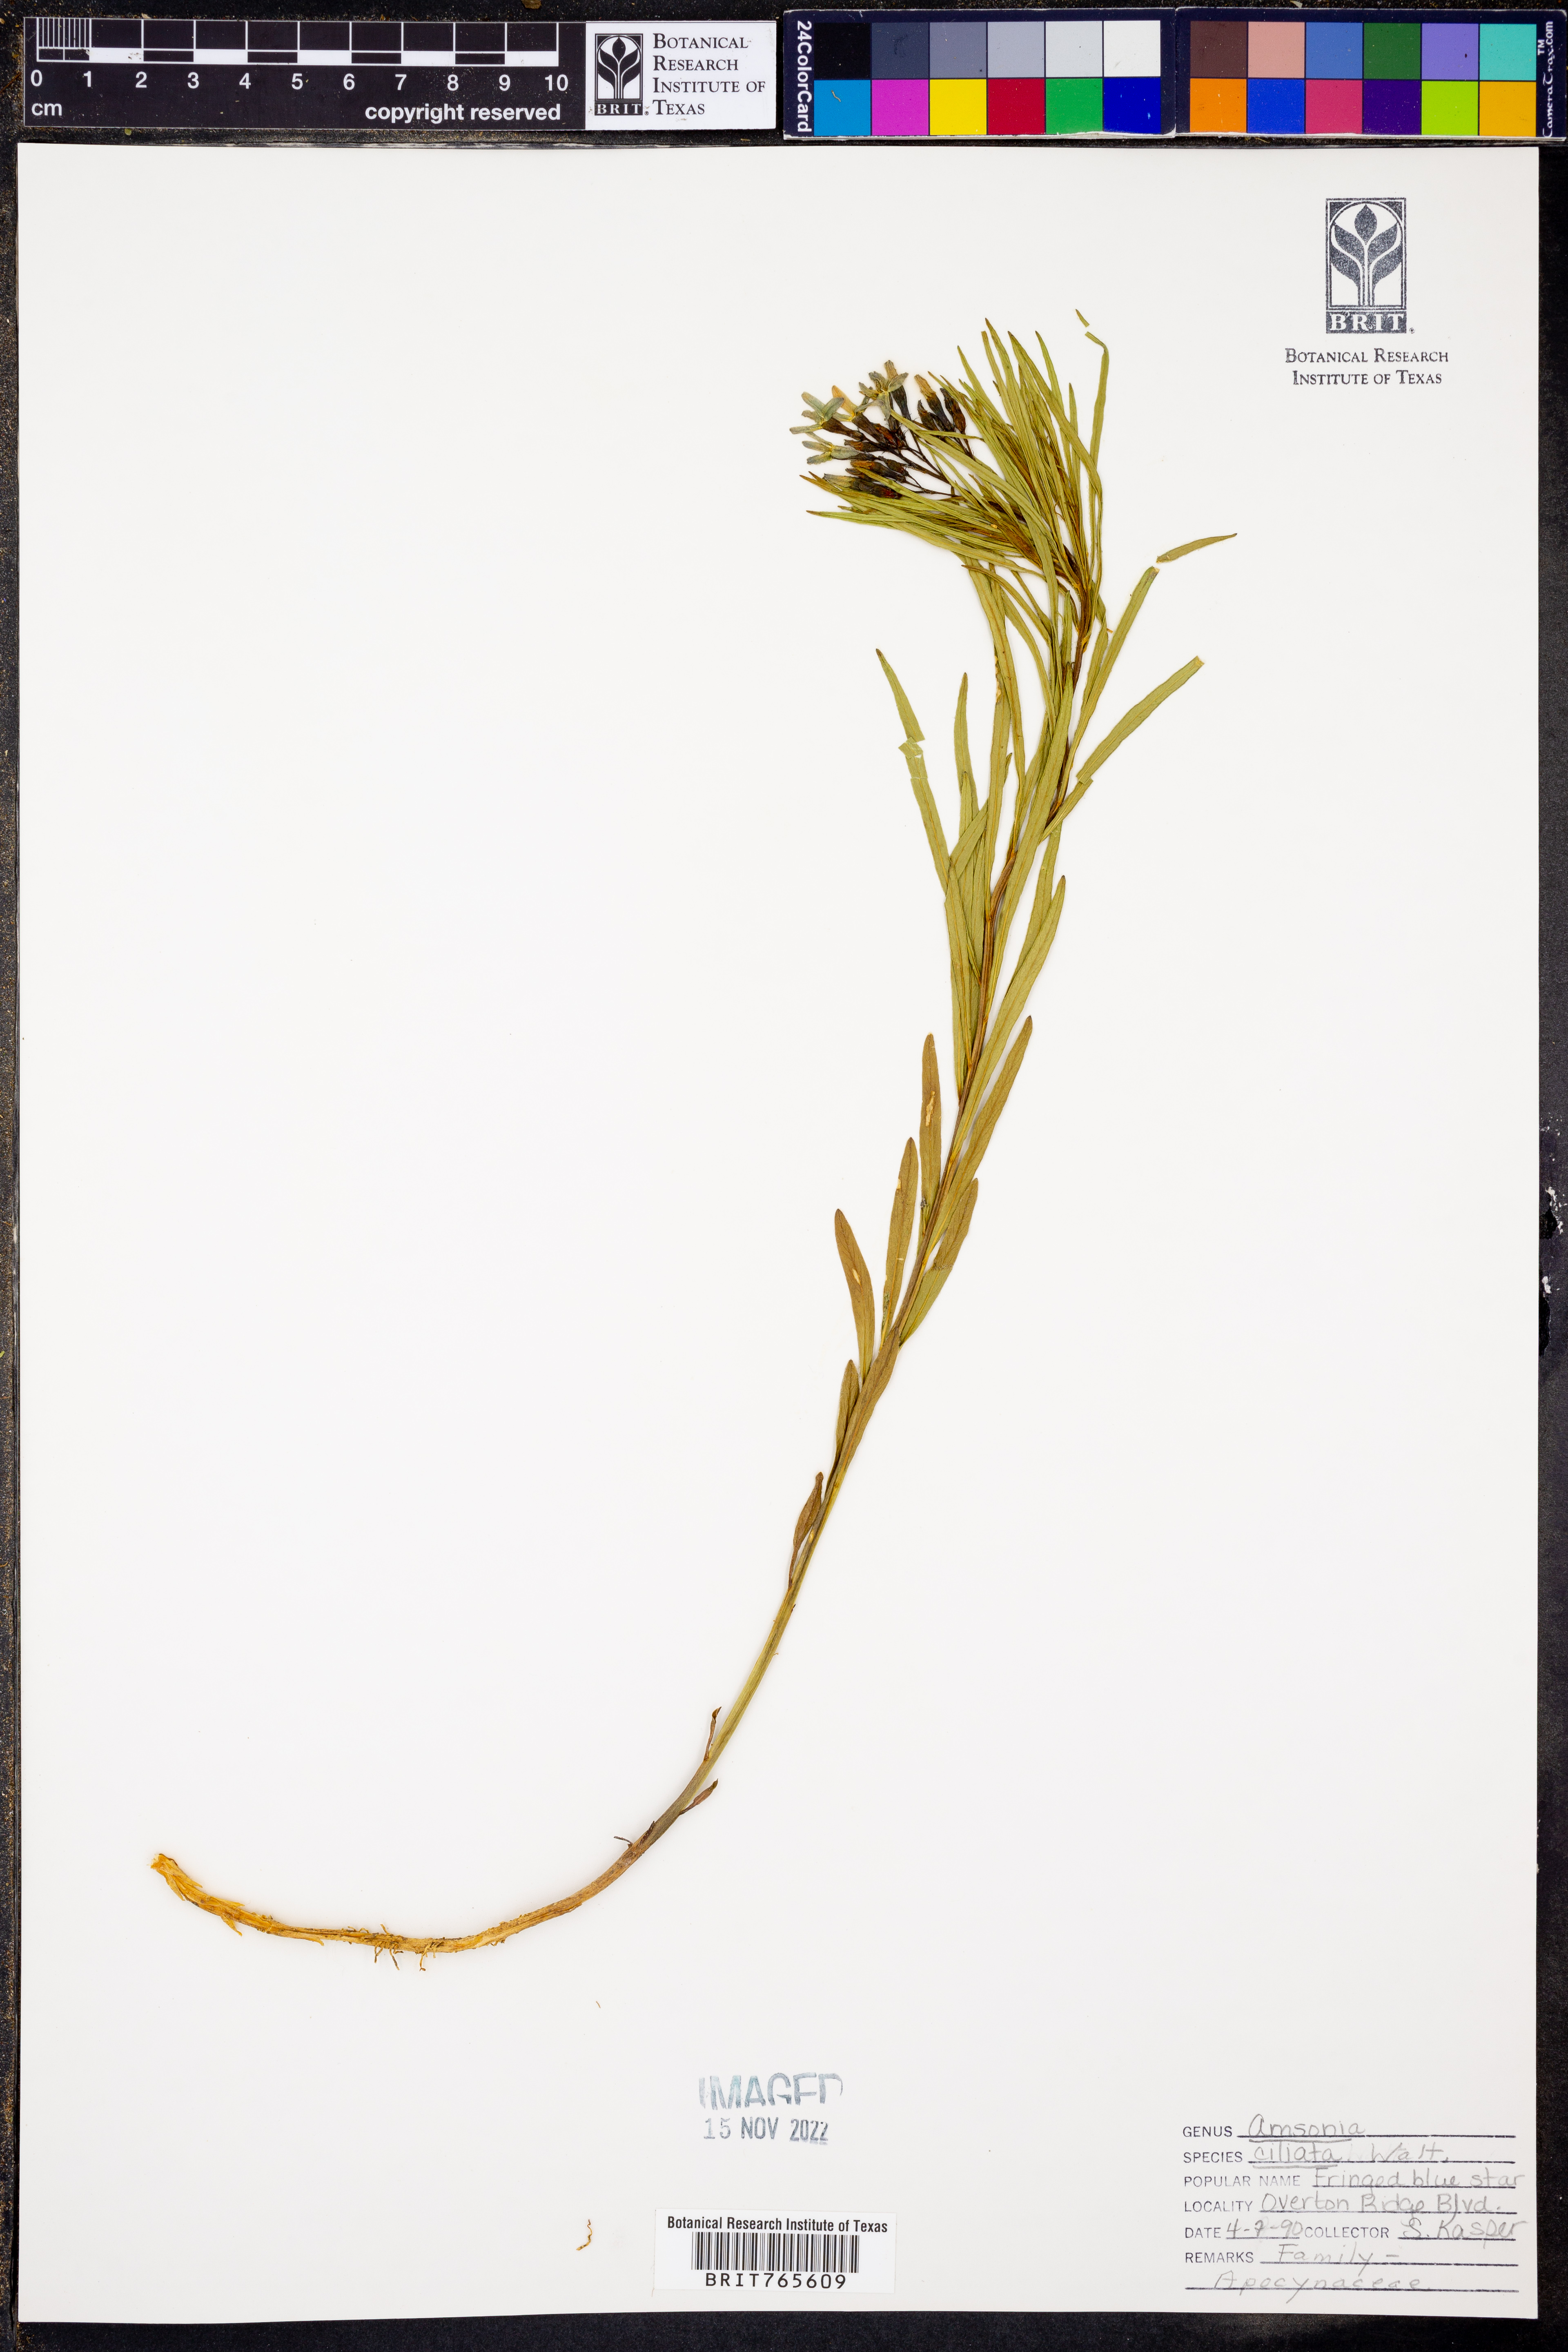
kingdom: Plantae
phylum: Tracheophyta
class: Magnoliopsida
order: Gentianales
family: Apocynaceae
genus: Amsonia
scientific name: Amsonia ciliata
